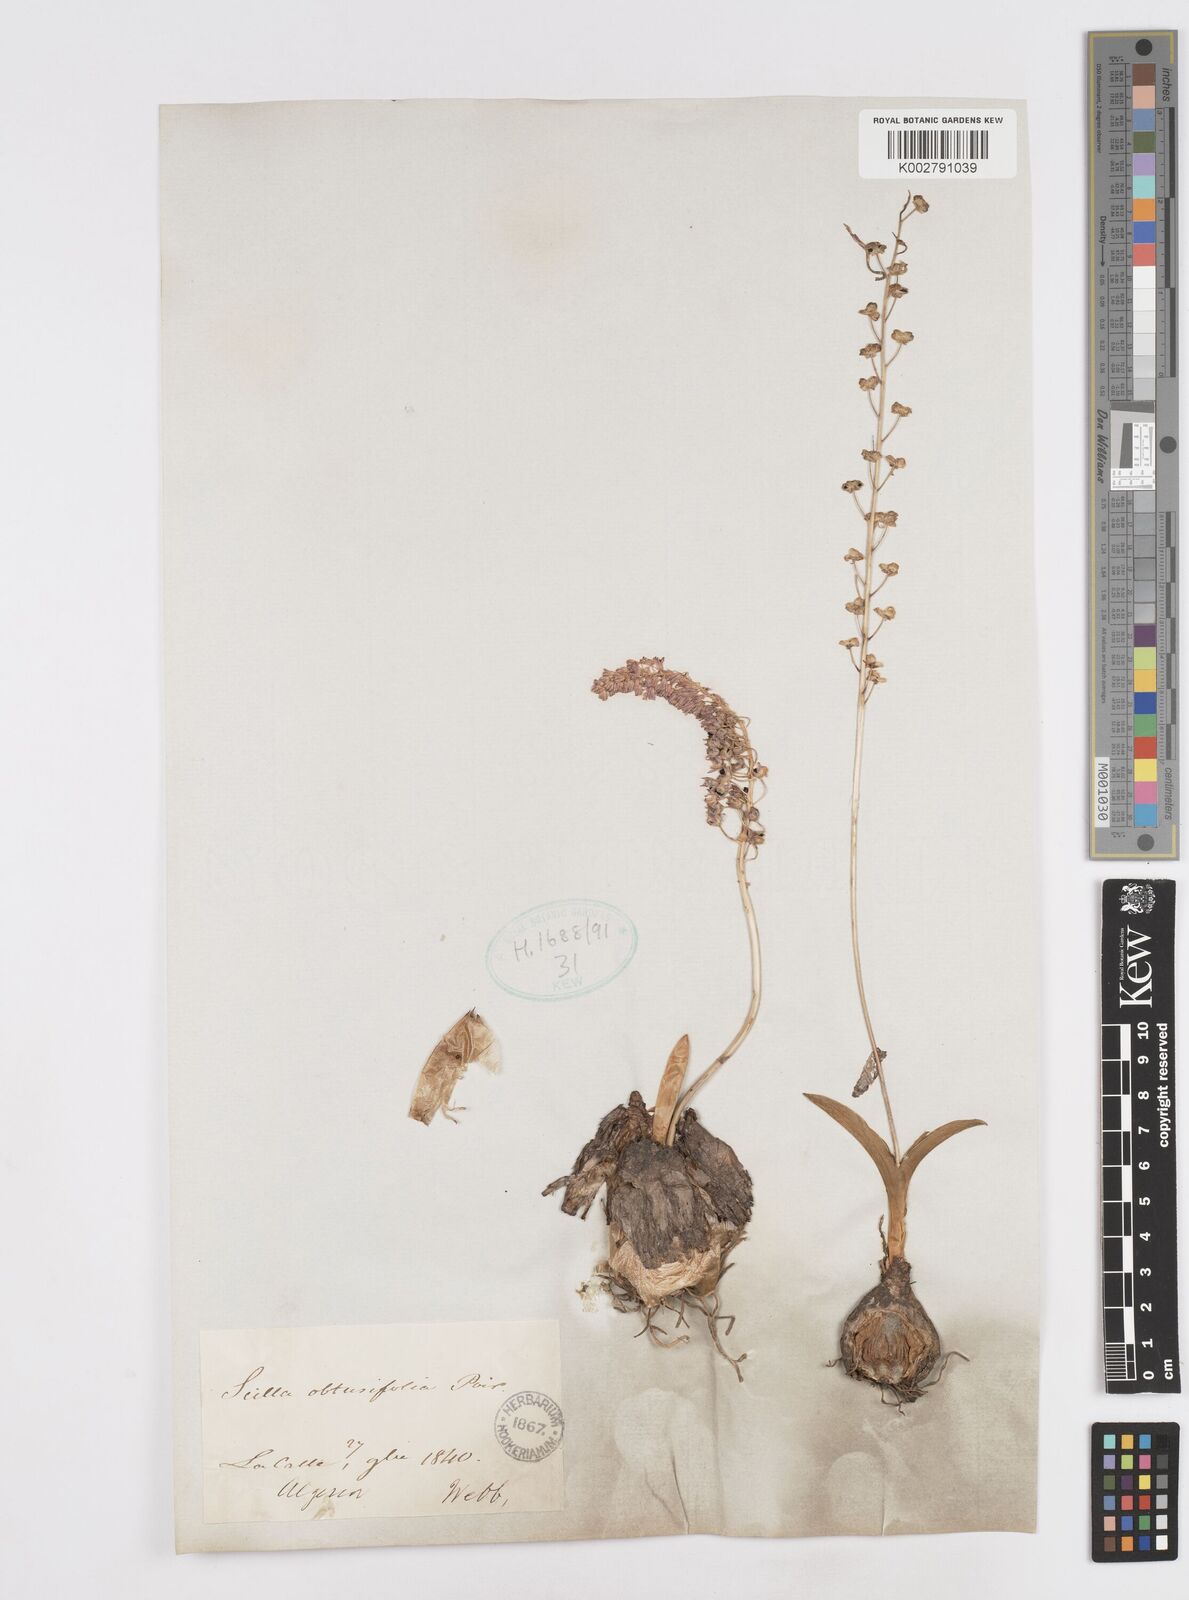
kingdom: Plantae
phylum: Tracheophyta
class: Liliopsida
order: Asparagales
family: Asparagaceae
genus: Prospero
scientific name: Prospero obtusifolium
